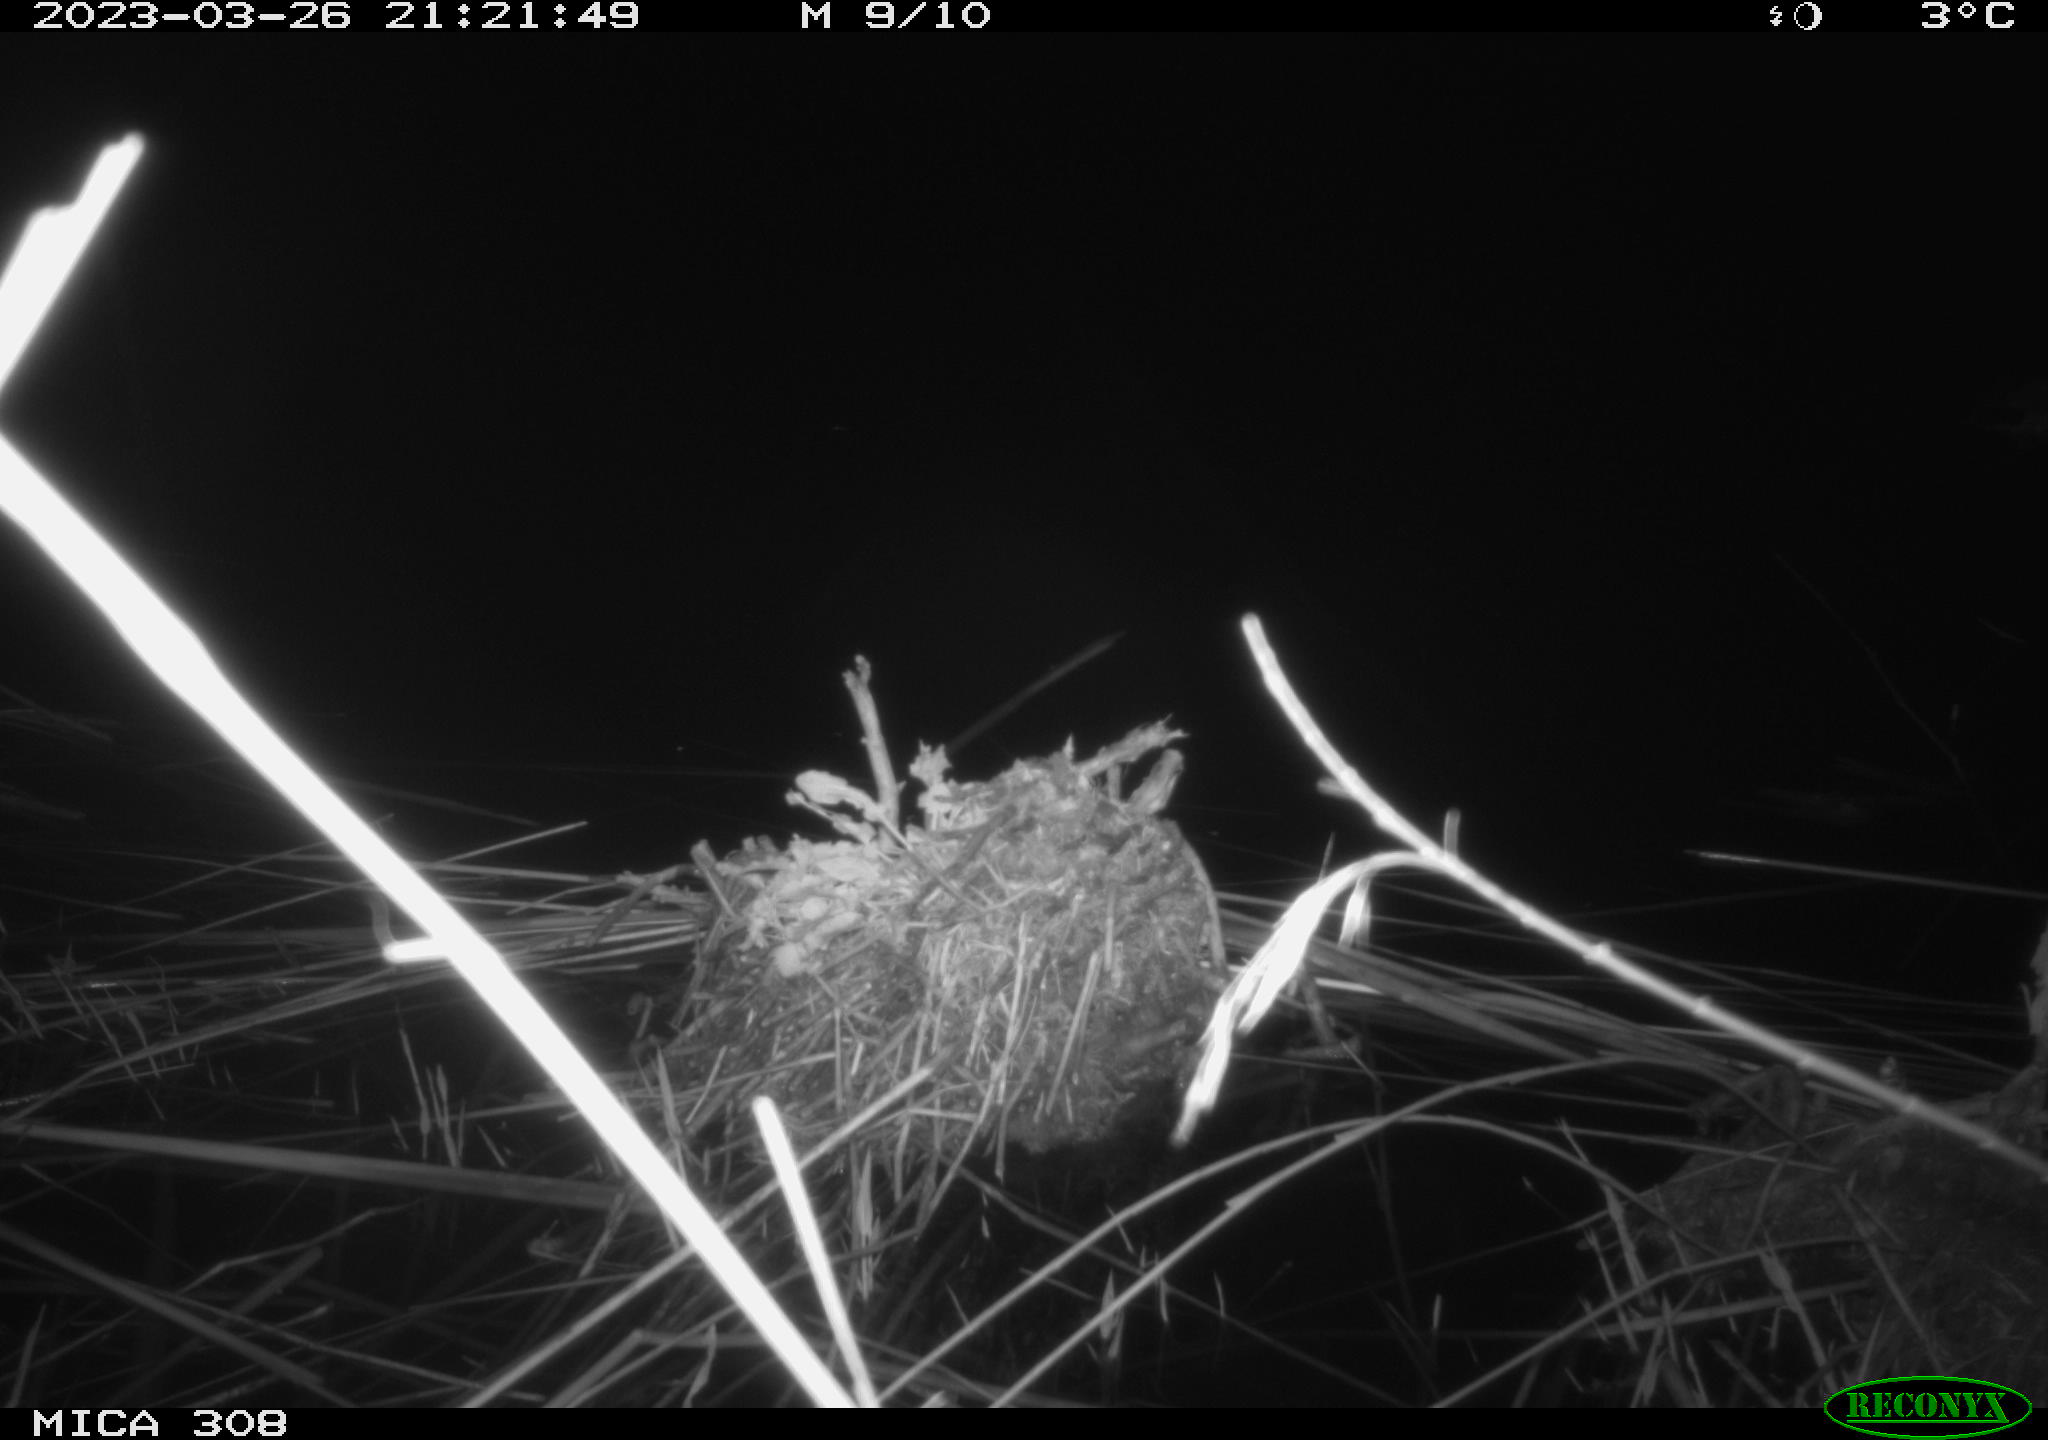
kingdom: Animalia
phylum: Chordata
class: Aves
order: Anseriformes
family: Anatidae
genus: Anas
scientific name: Anas
